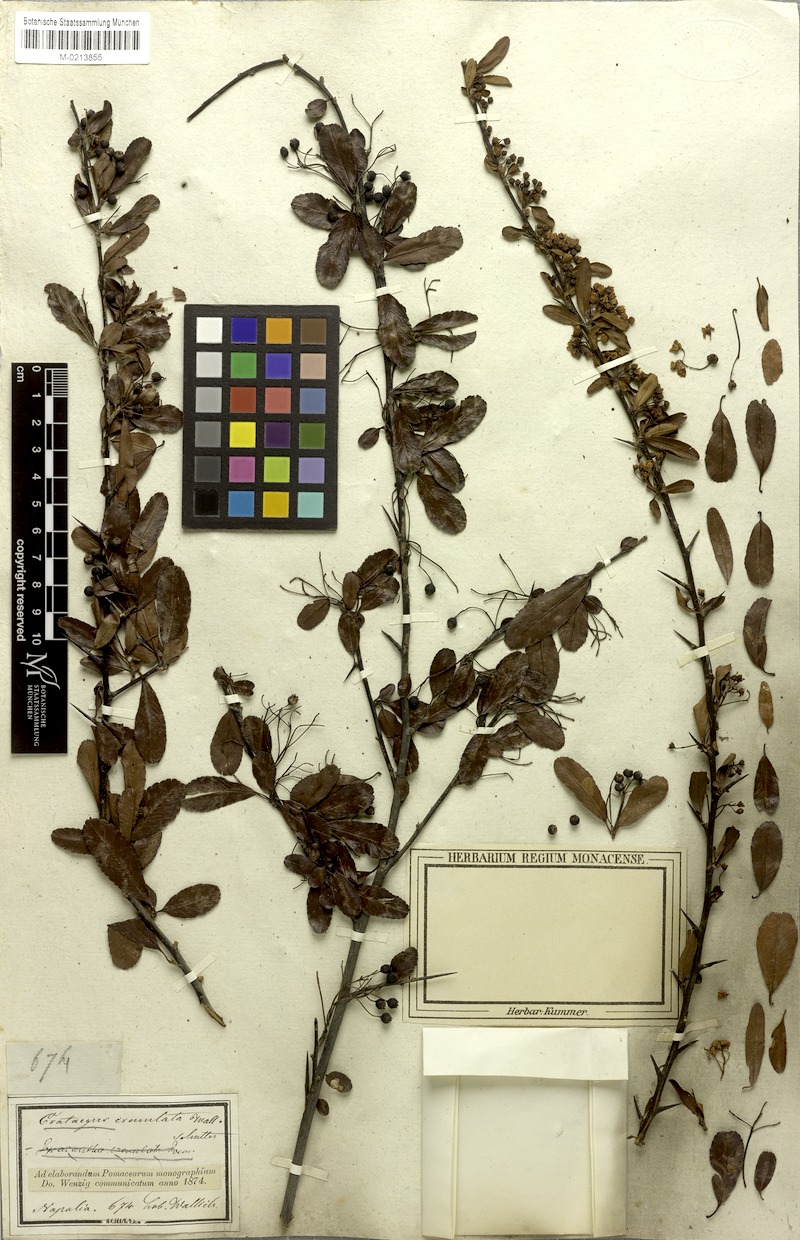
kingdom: Plantae
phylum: Tracheophyta
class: Magnoliopsida
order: Rosales
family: Rosaceae
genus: Pyracantha
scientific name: Pyracantha crenulata
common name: Nepalese firethorn
